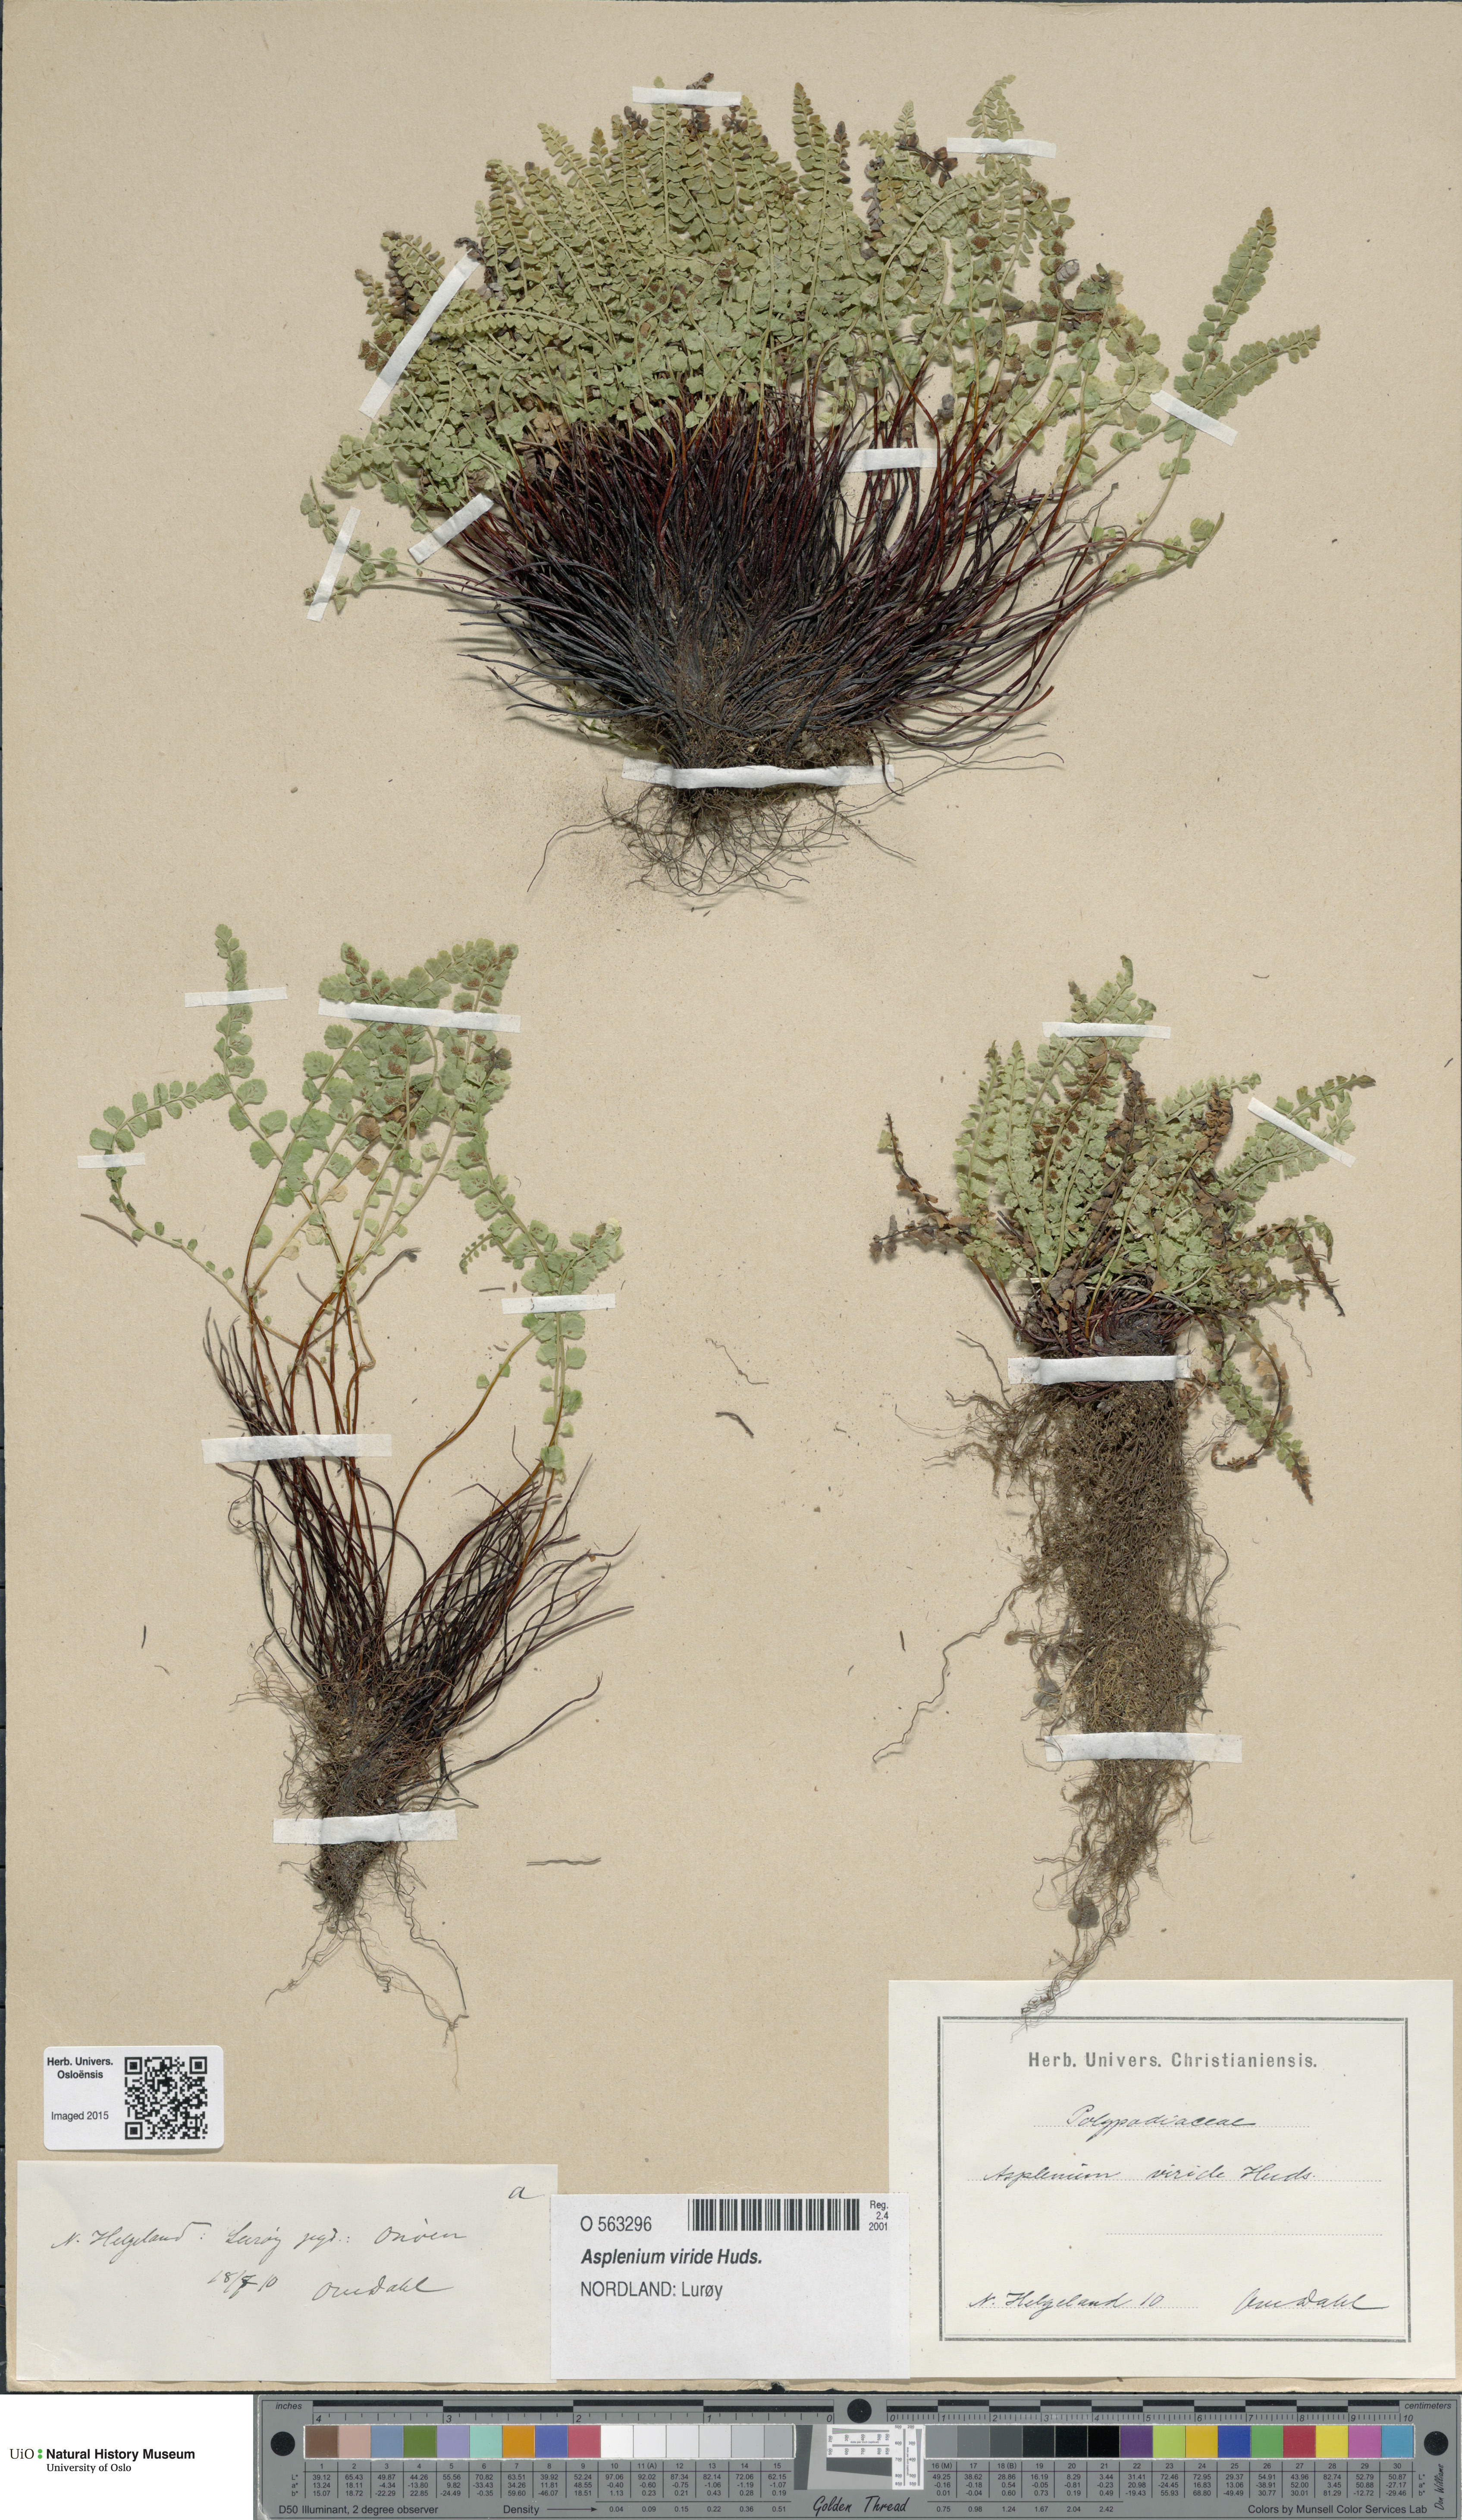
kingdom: Plantae
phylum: Tracheophyta
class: Polypodiopsida
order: Polypodiales
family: Aspleniaceae
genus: Asplenium
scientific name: Asplenium viride
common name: Green spleenwort
